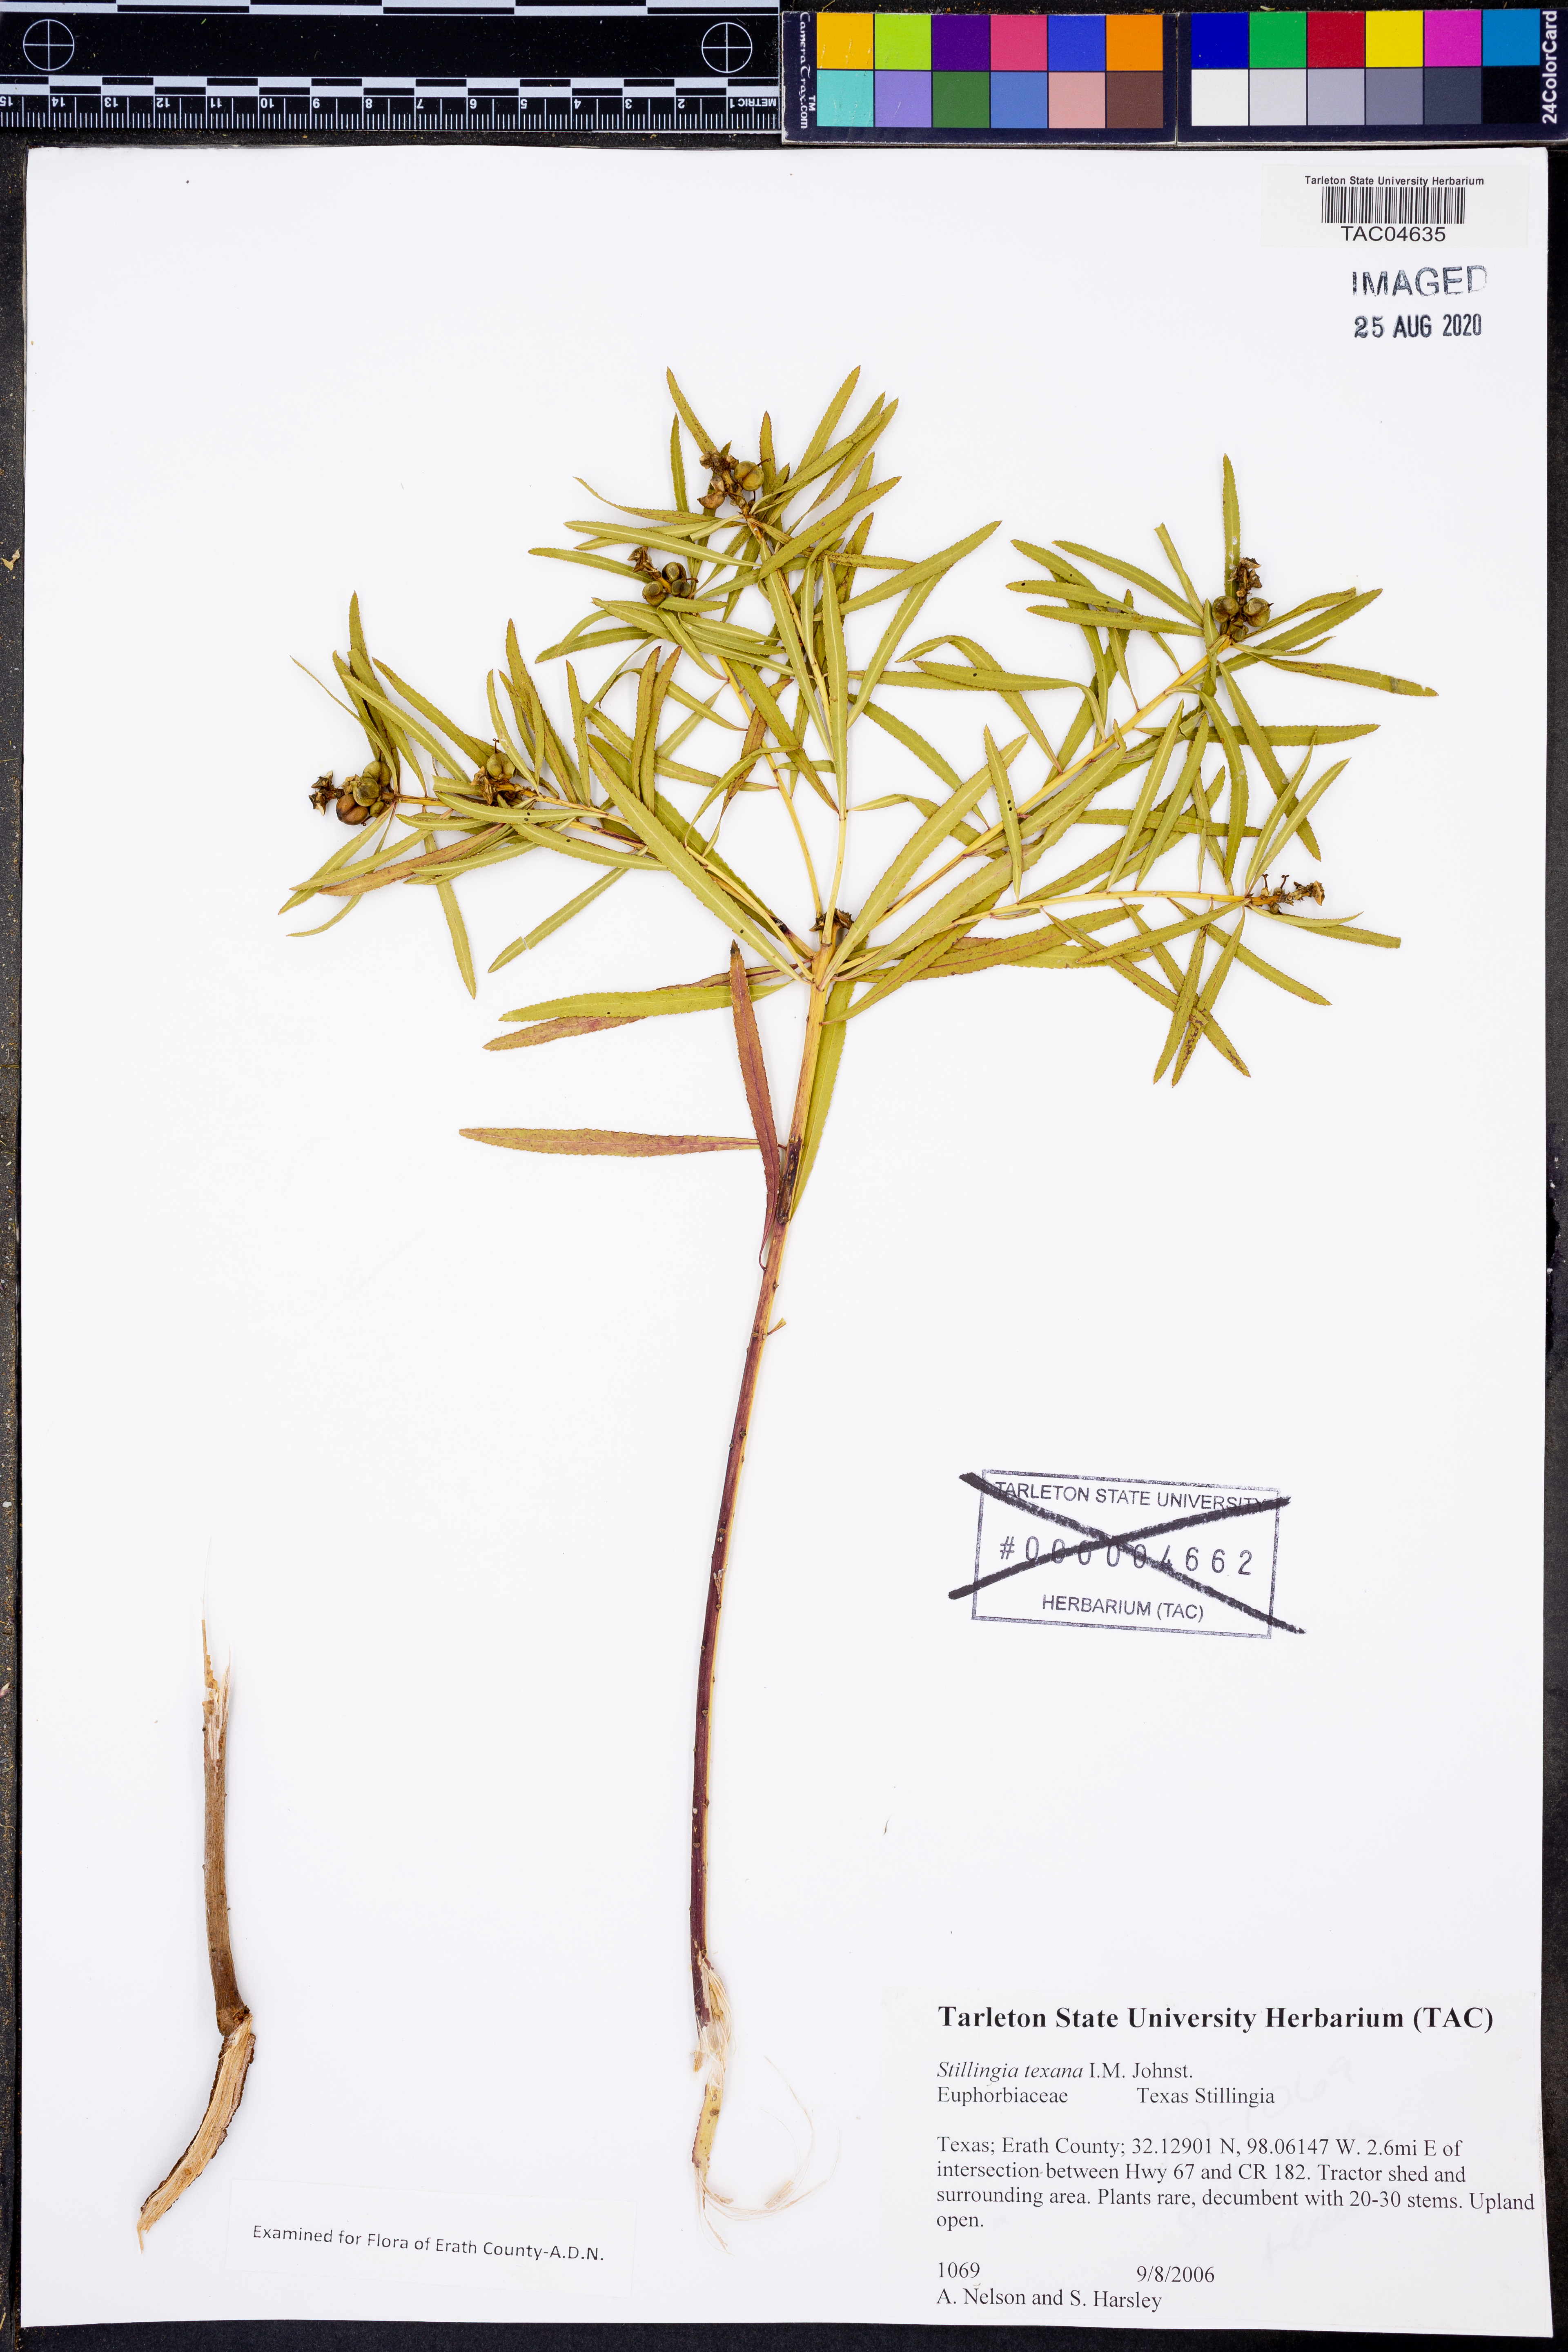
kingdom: Plantae
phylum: Tracheophyta
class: Magnoliopsida
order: Malpighiales
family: Euphorbiaceae
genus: Stillingia
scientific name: Stillingia texana
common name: Texas stillingia
